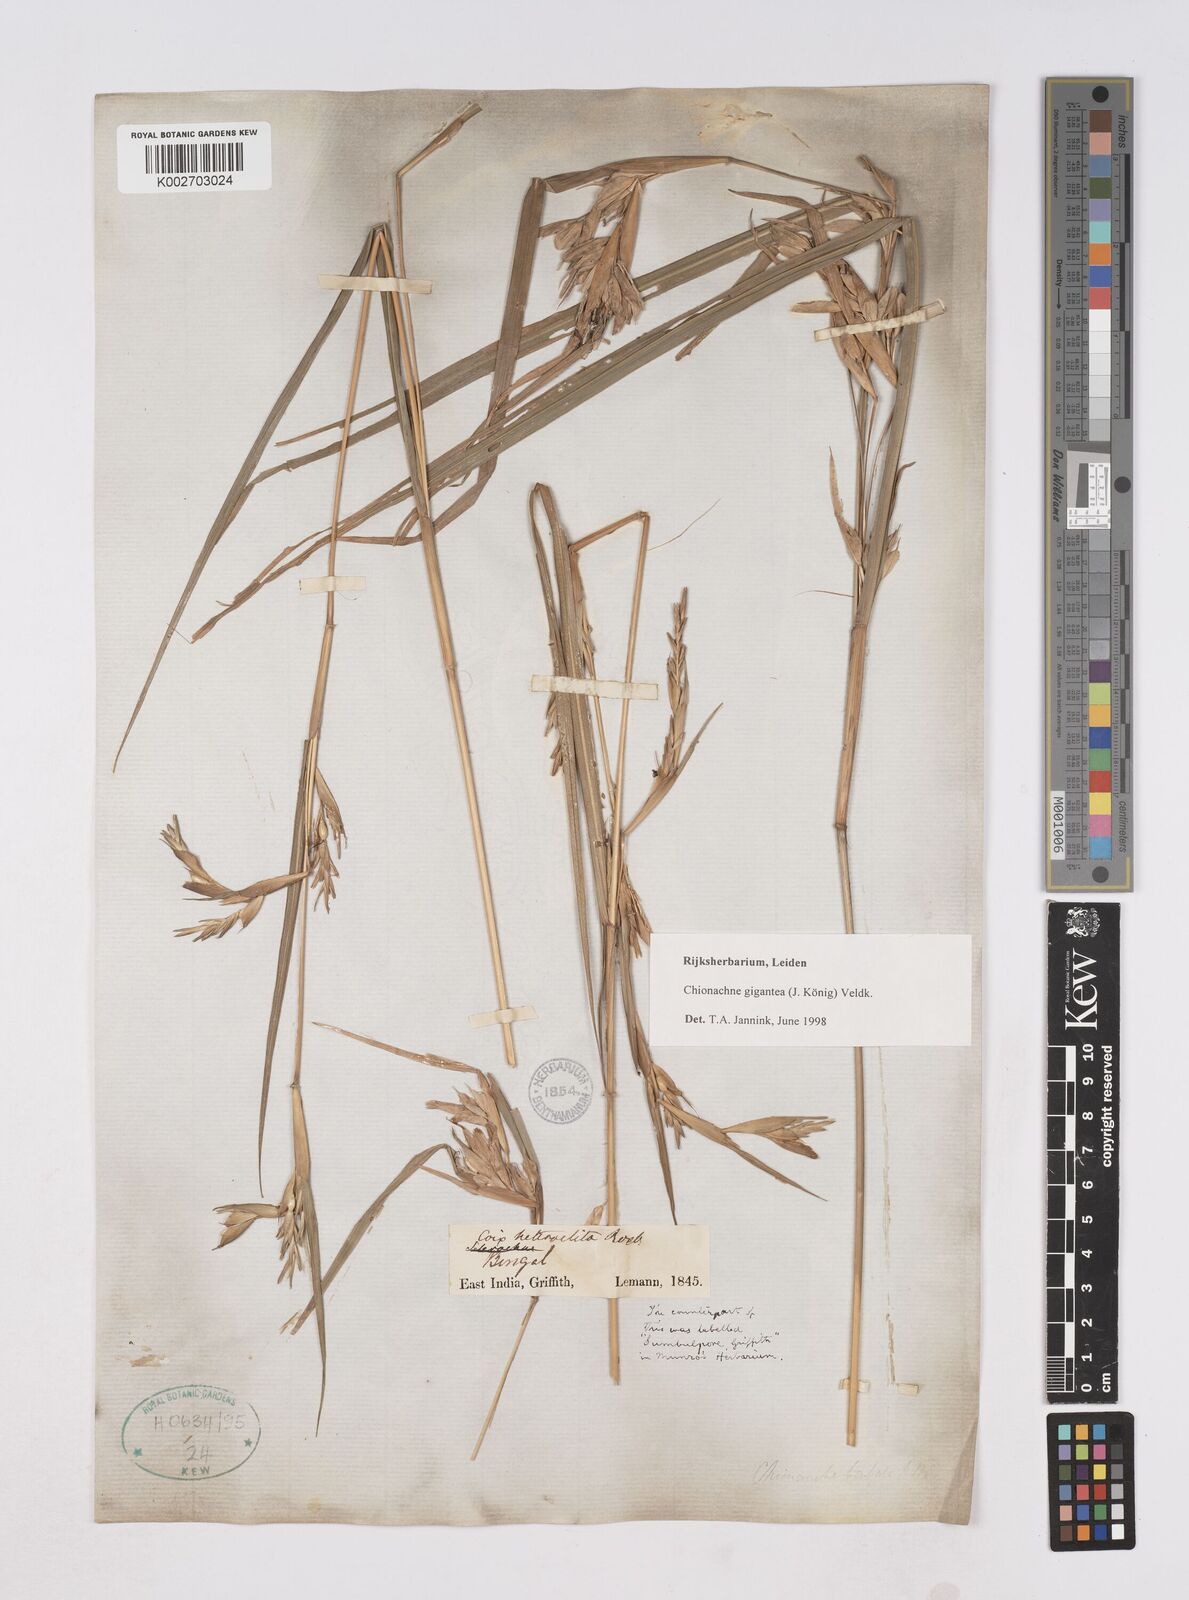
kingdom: Plantae
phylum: Tracheophyta
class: Liliopsida
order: Poales
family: Poaceae
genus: Polytoca
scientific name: Polytoca gigantea
